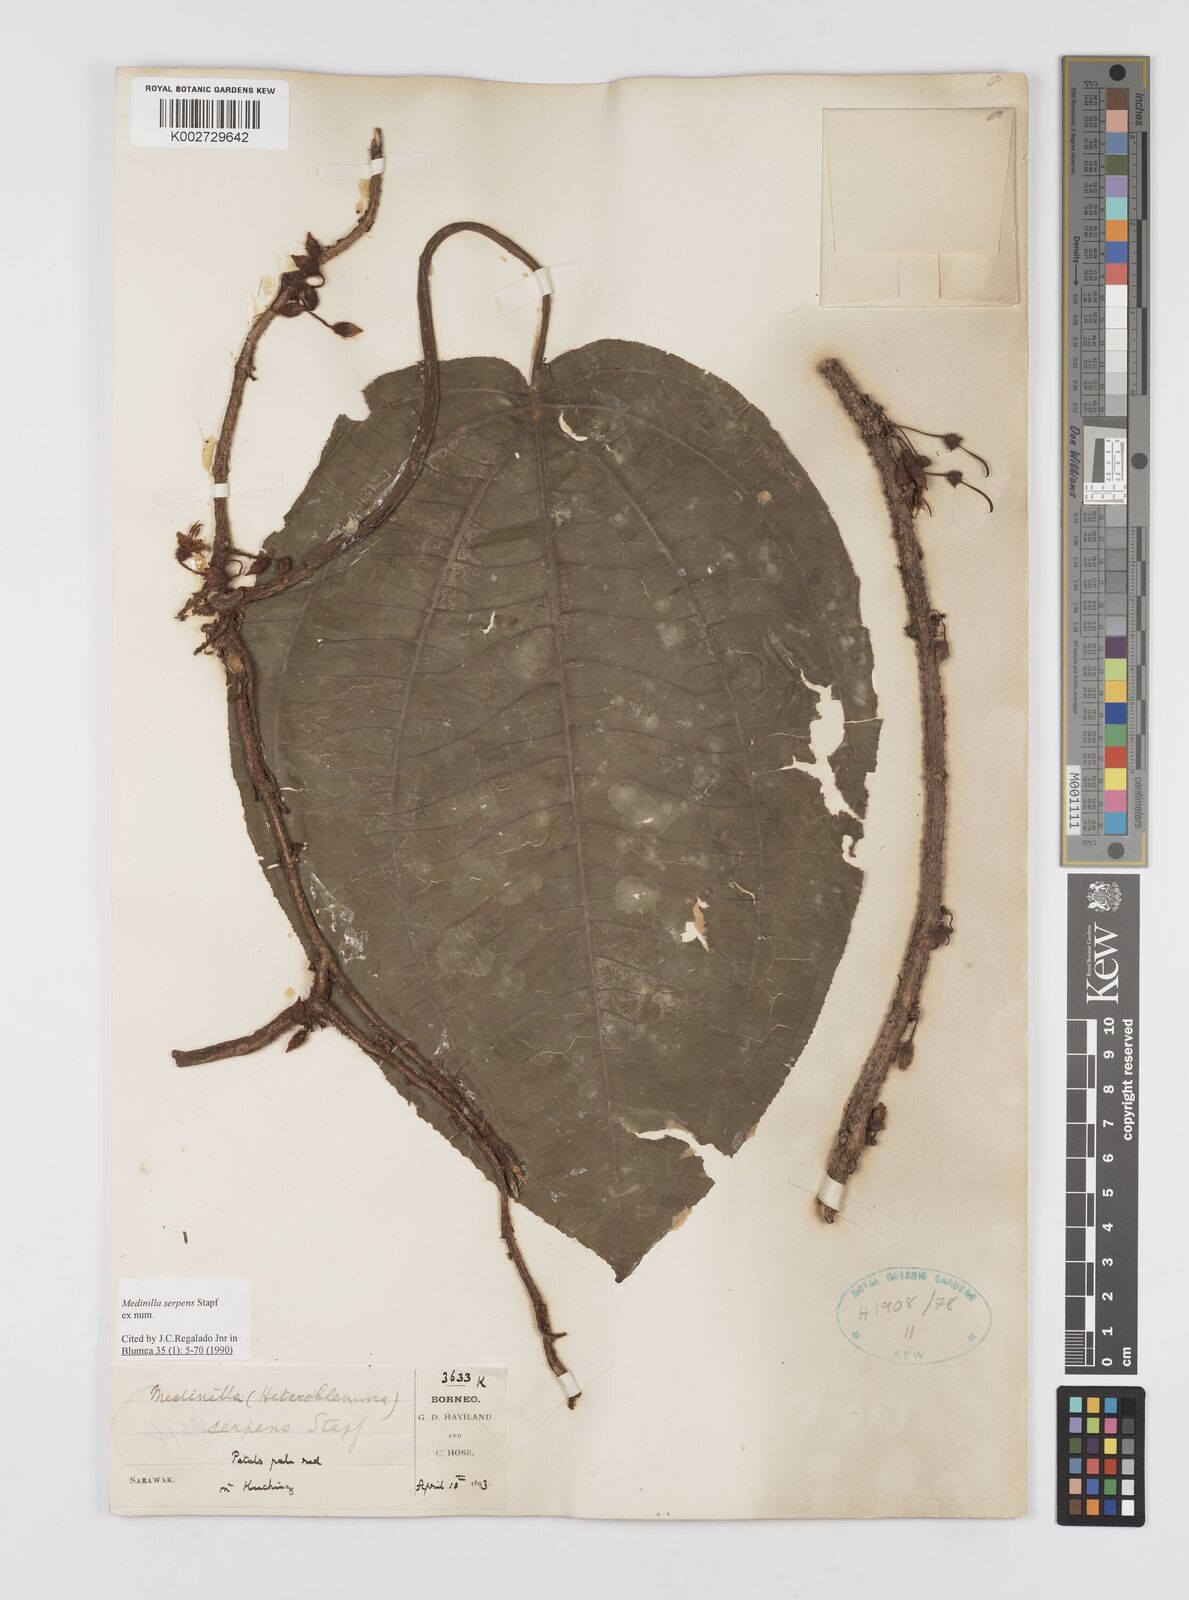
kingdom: Plantae
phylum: Tracheophyta
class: Magnoliopsida
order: Myrtales
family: Melastomataceae
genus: Heteroblemma
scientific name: Heteroblemma serpens
